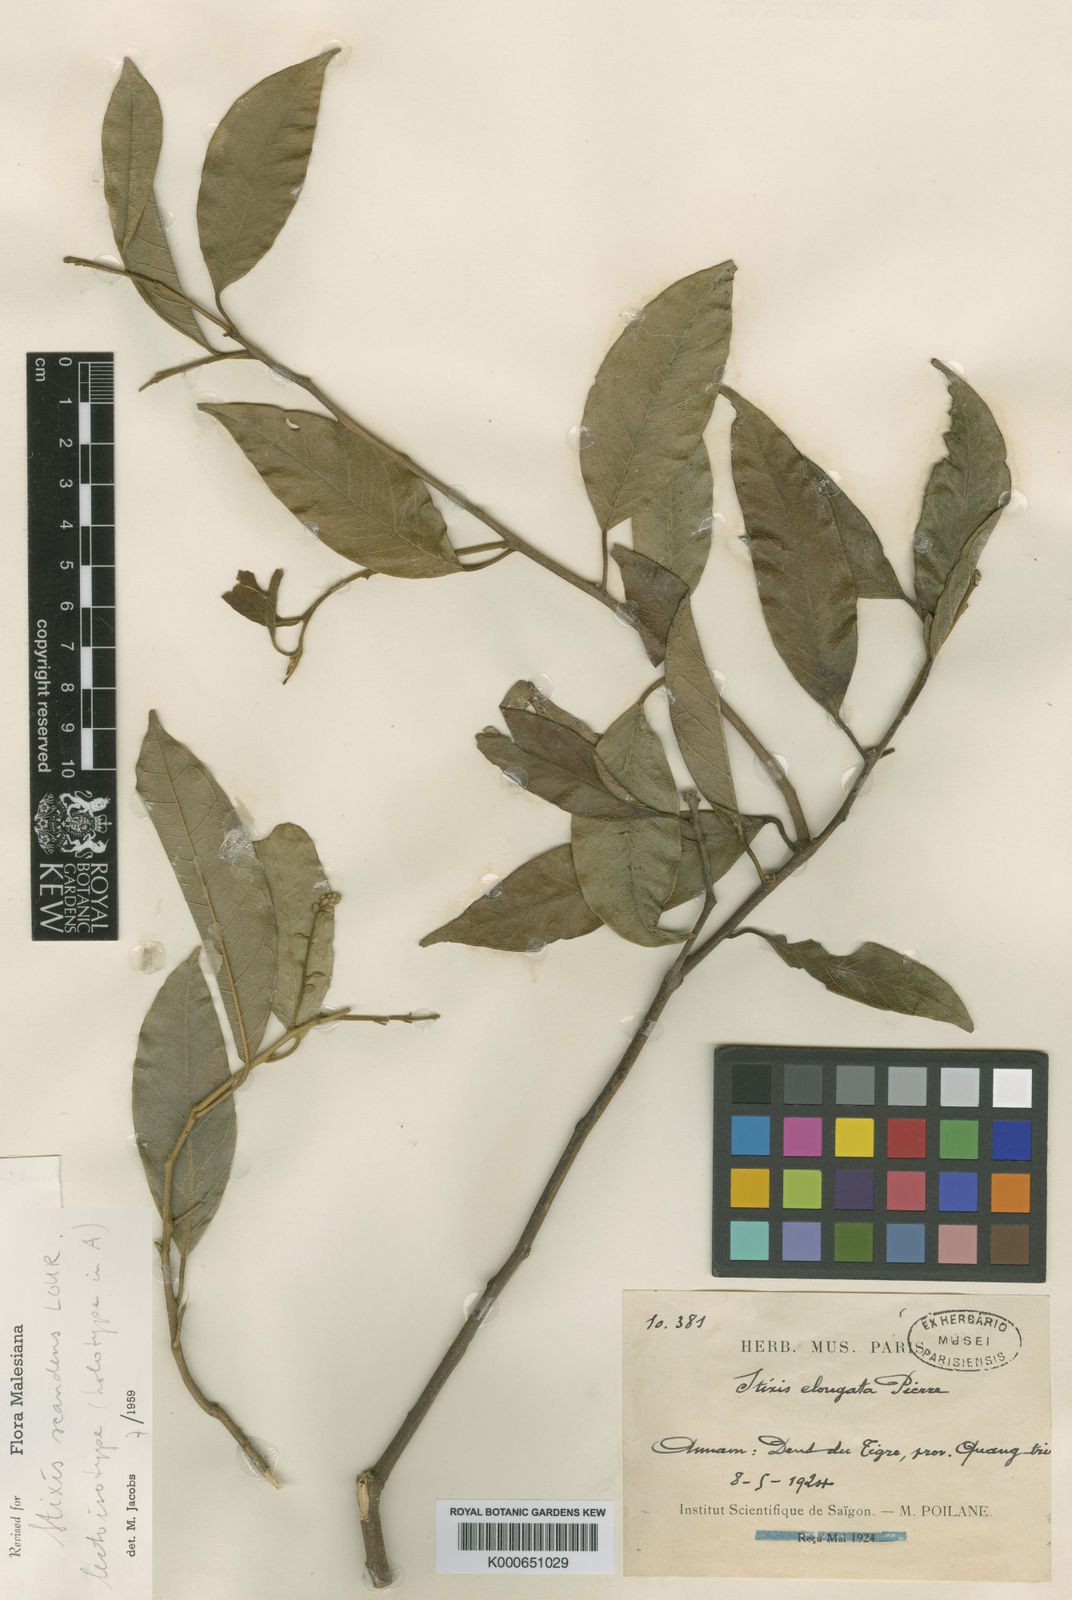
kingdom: Plantae
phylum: Tracheophyta
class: Magnoliopsida
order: Brassicales
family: Stixaceae
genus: Stixis
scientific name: Stixis scandens
